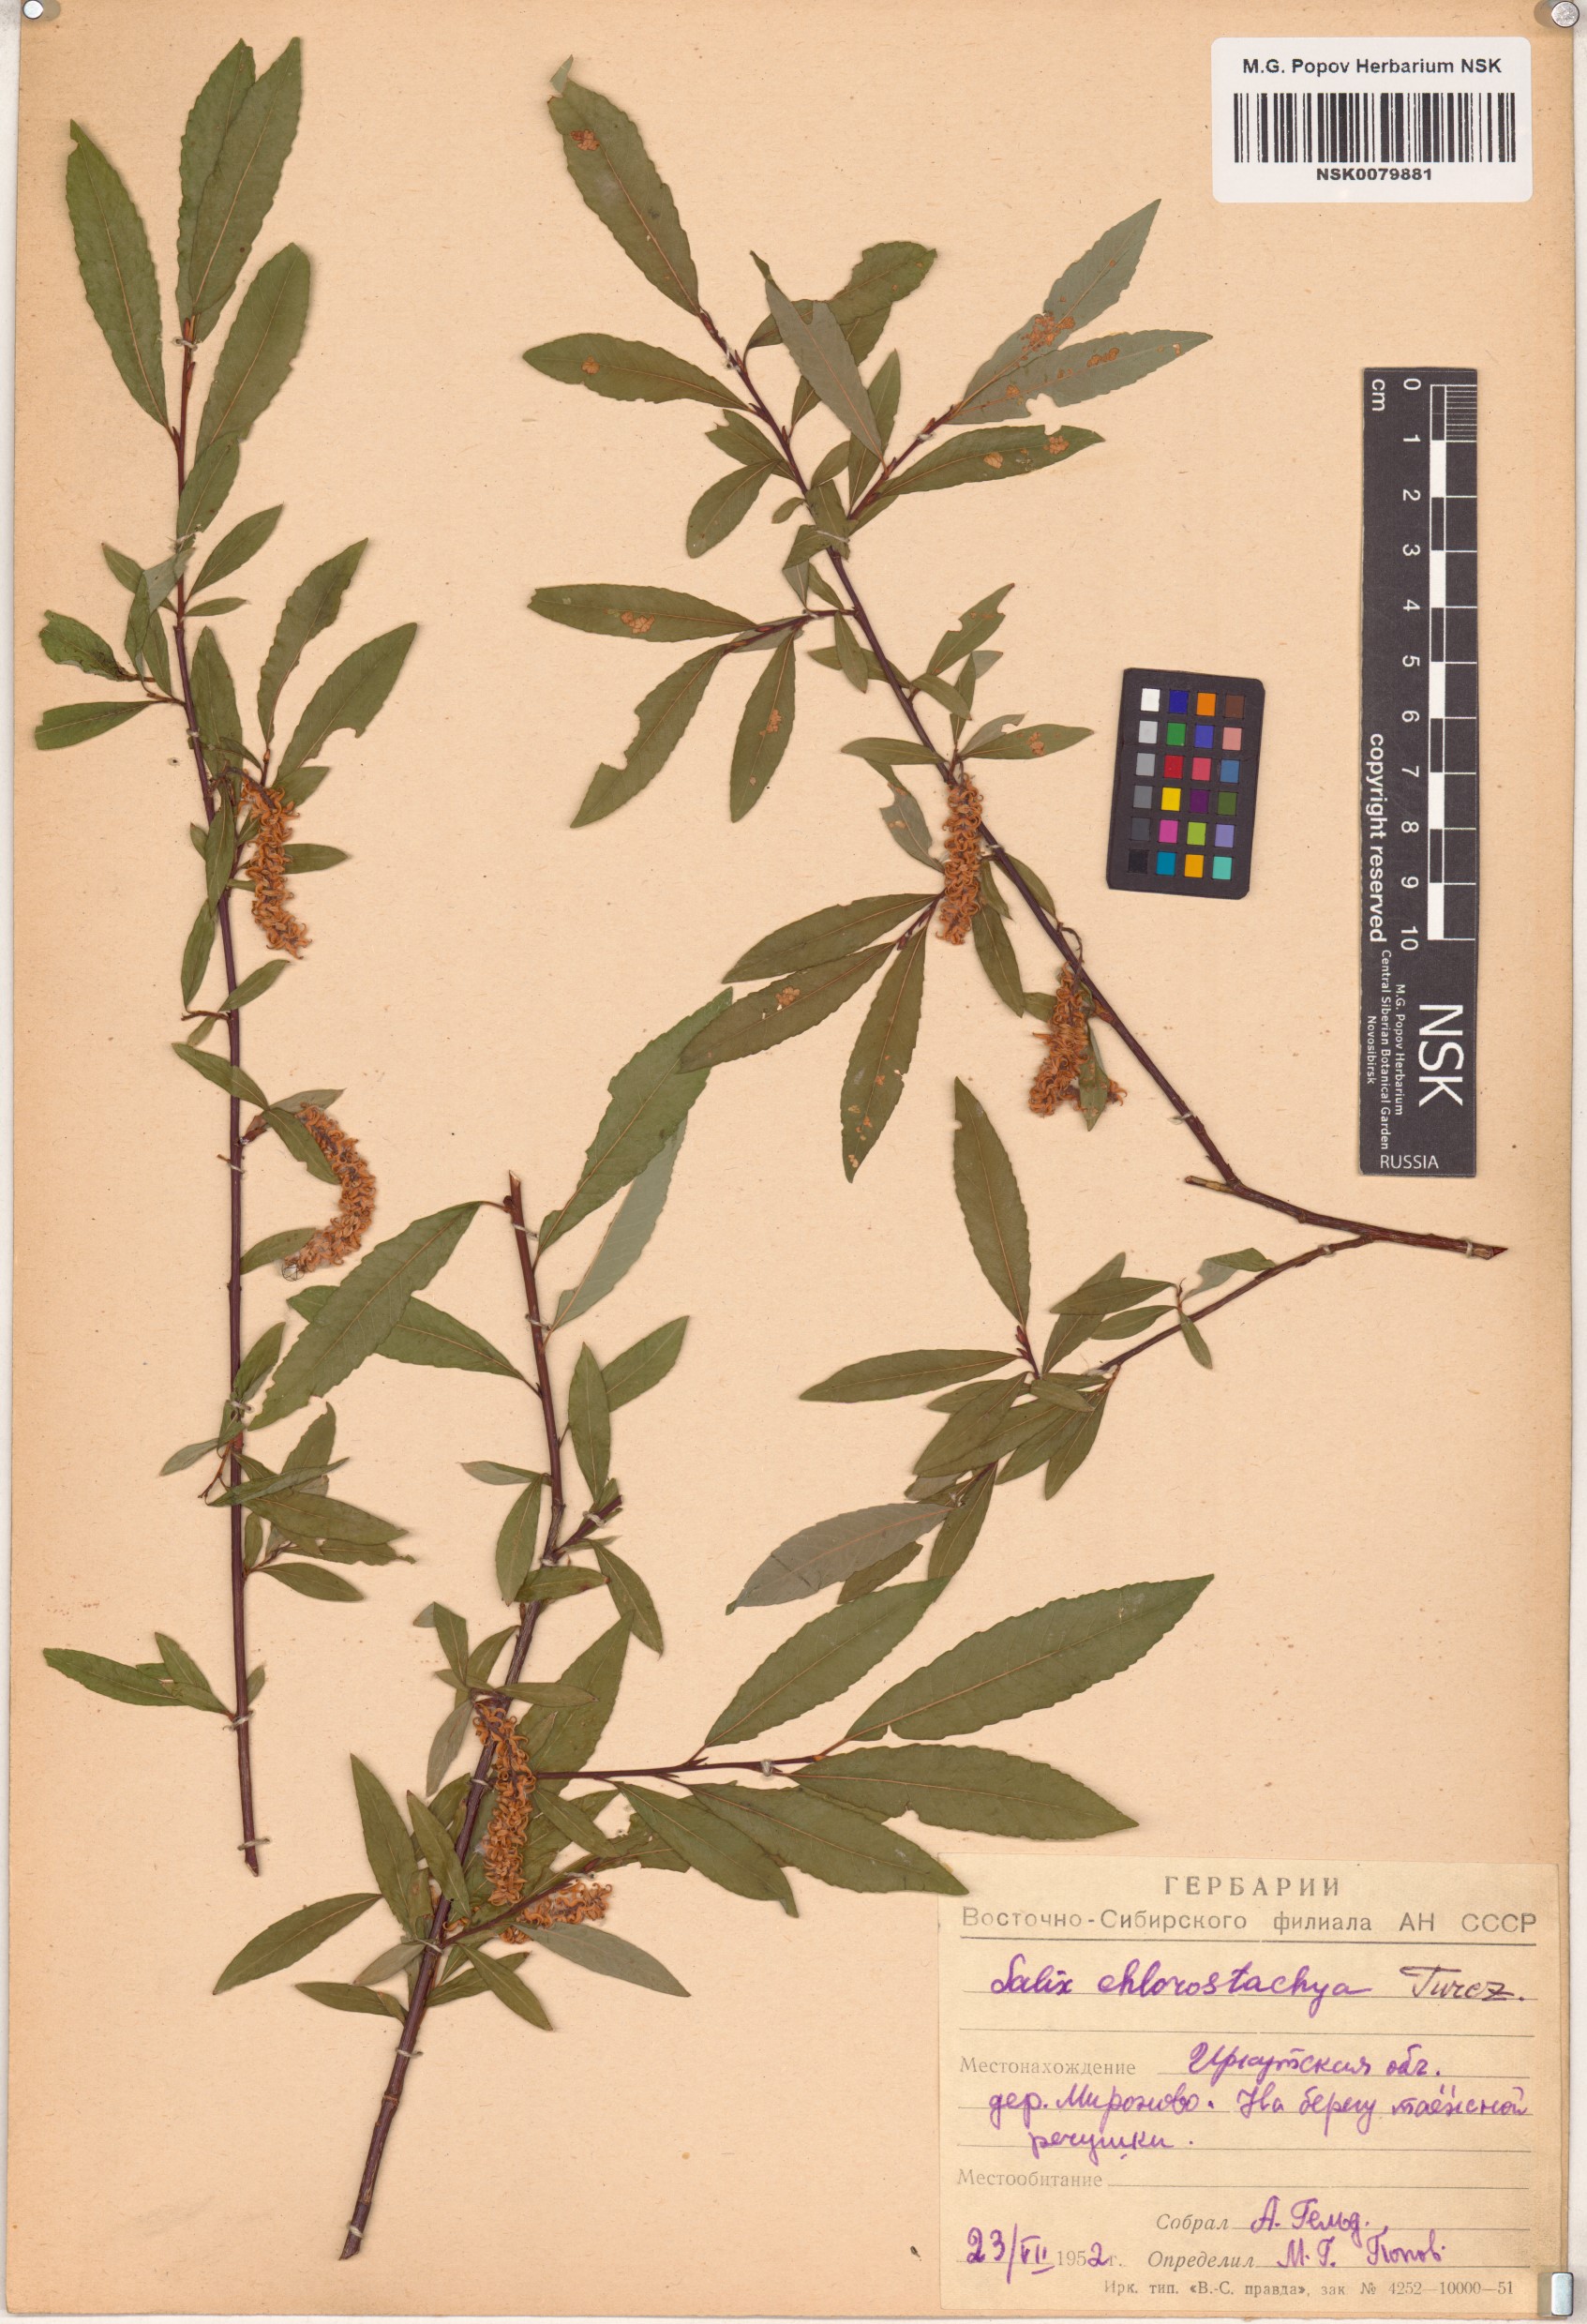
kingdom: Plantae
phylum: Tracheophyta
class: Magnoliopsida
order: Malpighiales
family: Salicaceae
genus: Salix
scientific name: Salix rhamnifolia
